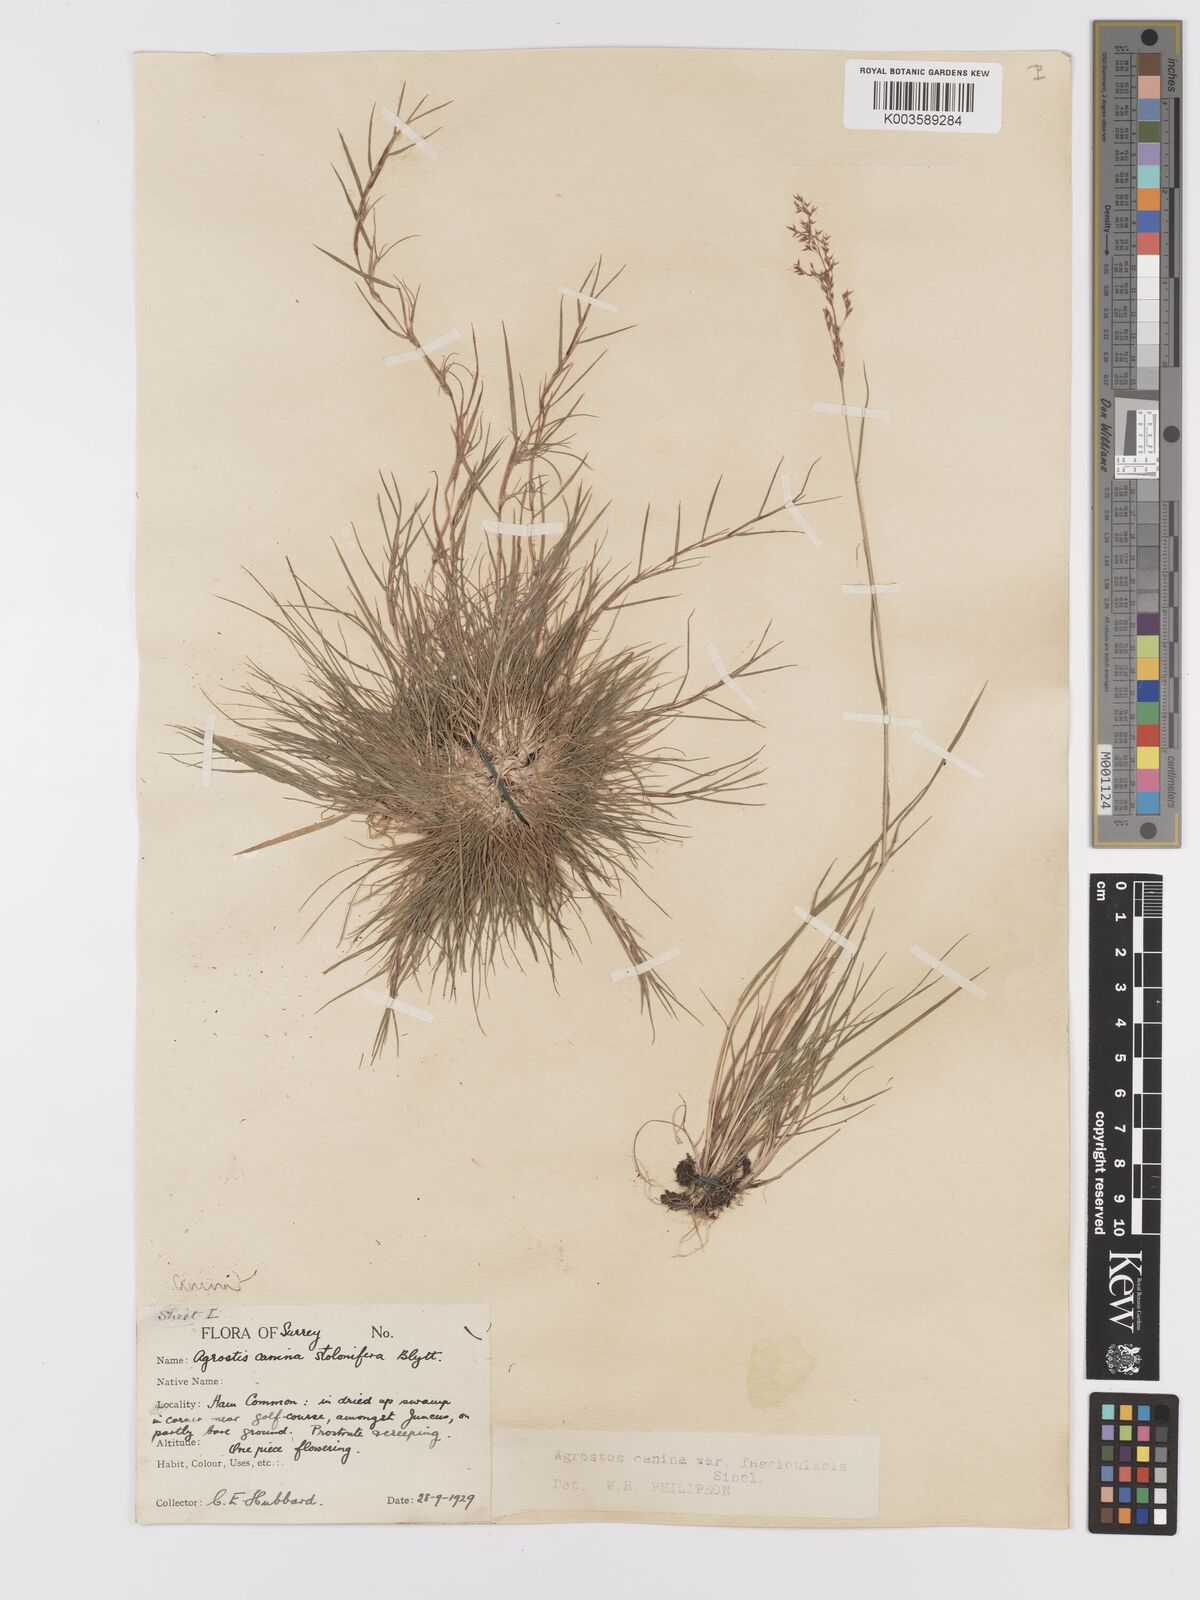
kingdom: Plantae
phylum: Tracheophyta
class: Liliopsida
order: Poales
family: Poaceae
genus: Agrostis
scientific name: Agrostis canina
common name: Velvet bent
